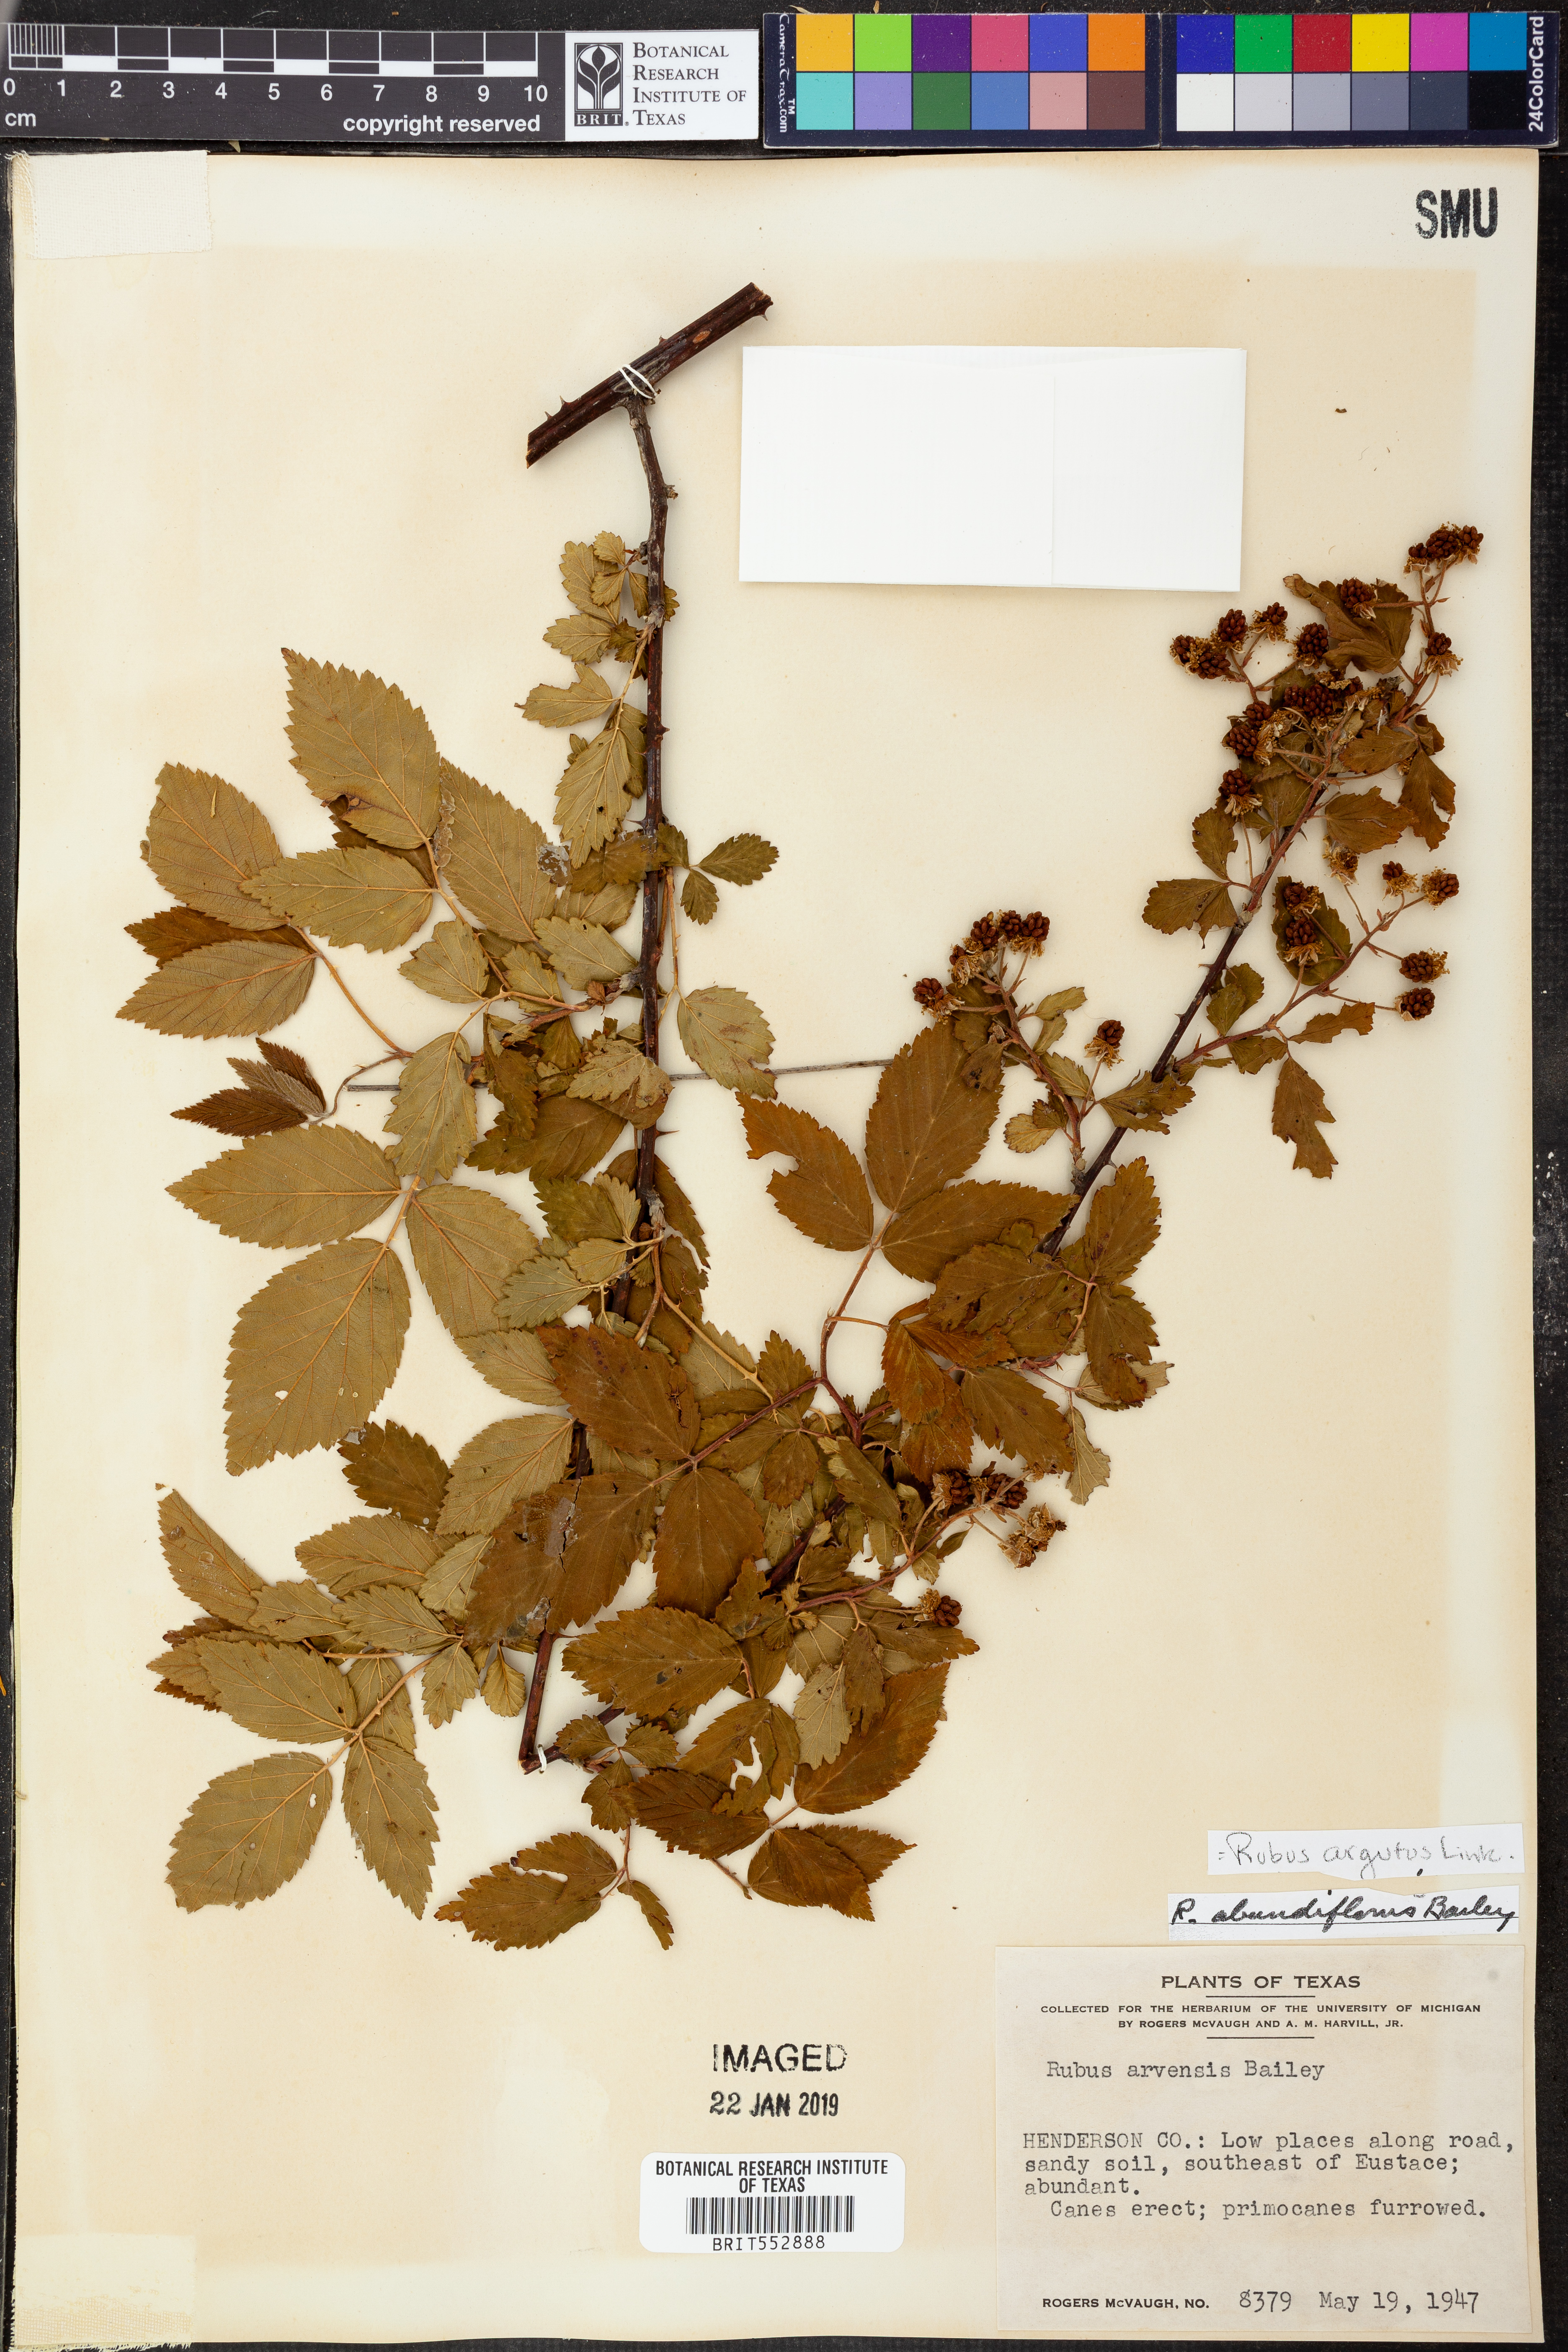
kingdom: Plantae
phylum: Tracheophyta
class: Magnoliopsida
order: Rosales
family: Rosaceae
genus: Rubus
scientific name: Rubus argutus
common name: Sawtooth blackberry
